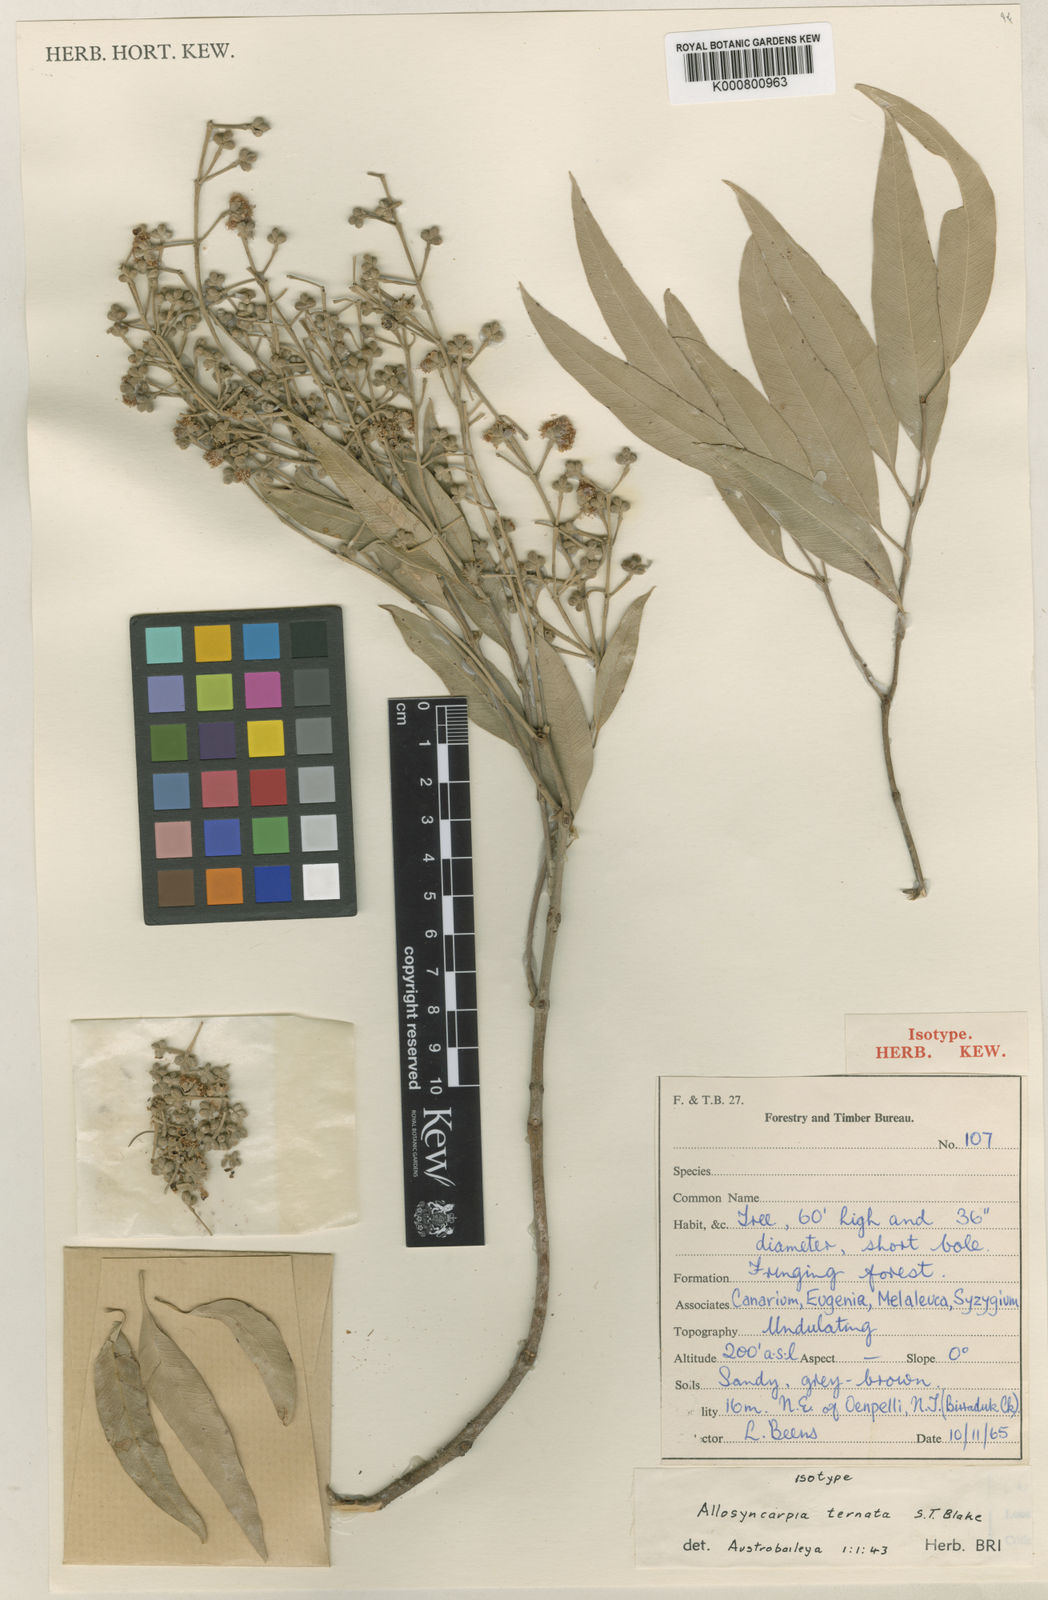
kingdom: Plantae
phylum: Tracheophyta
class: Magnoliopsida
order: Myrtales
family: Myrtaceae
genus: Allosyncarpia
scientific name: Allosyncarpia ternata
